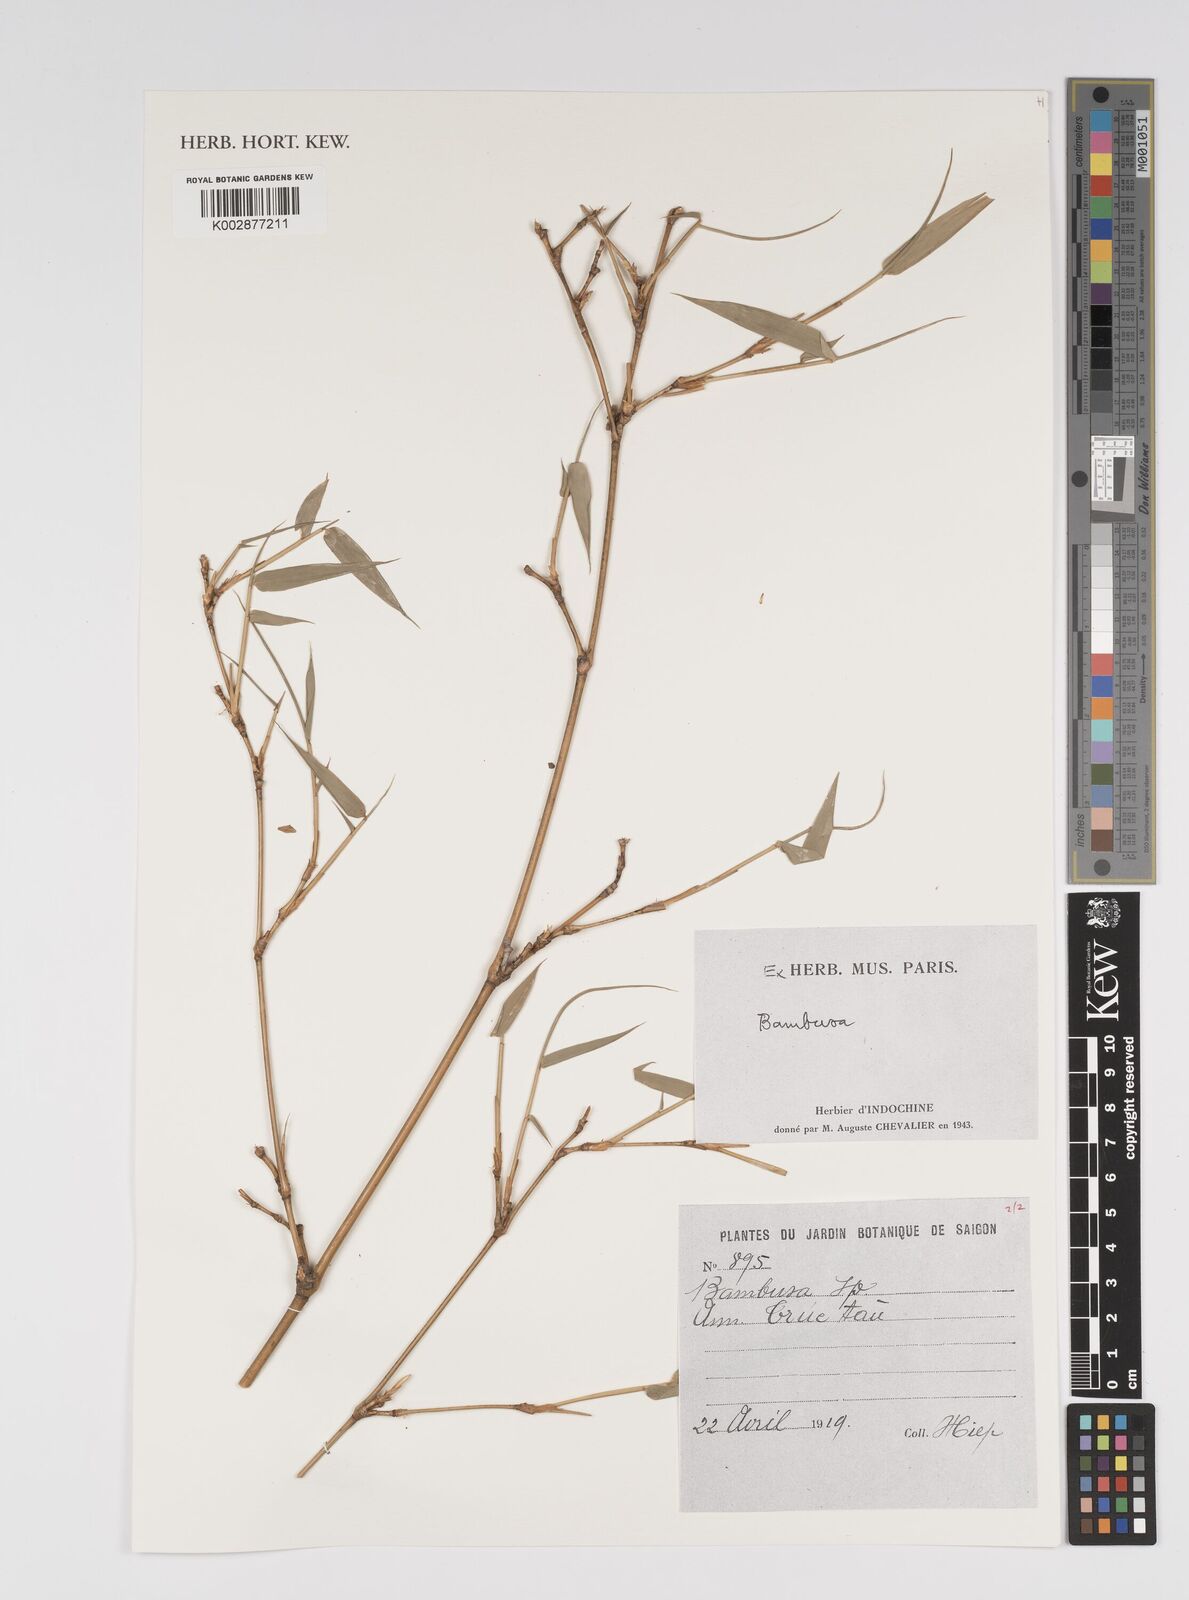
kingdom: Plantae
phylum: Tracheophyta
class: Liliopsida
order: Poales
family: Poaceae
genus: Bambusa
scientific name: Bambusa
